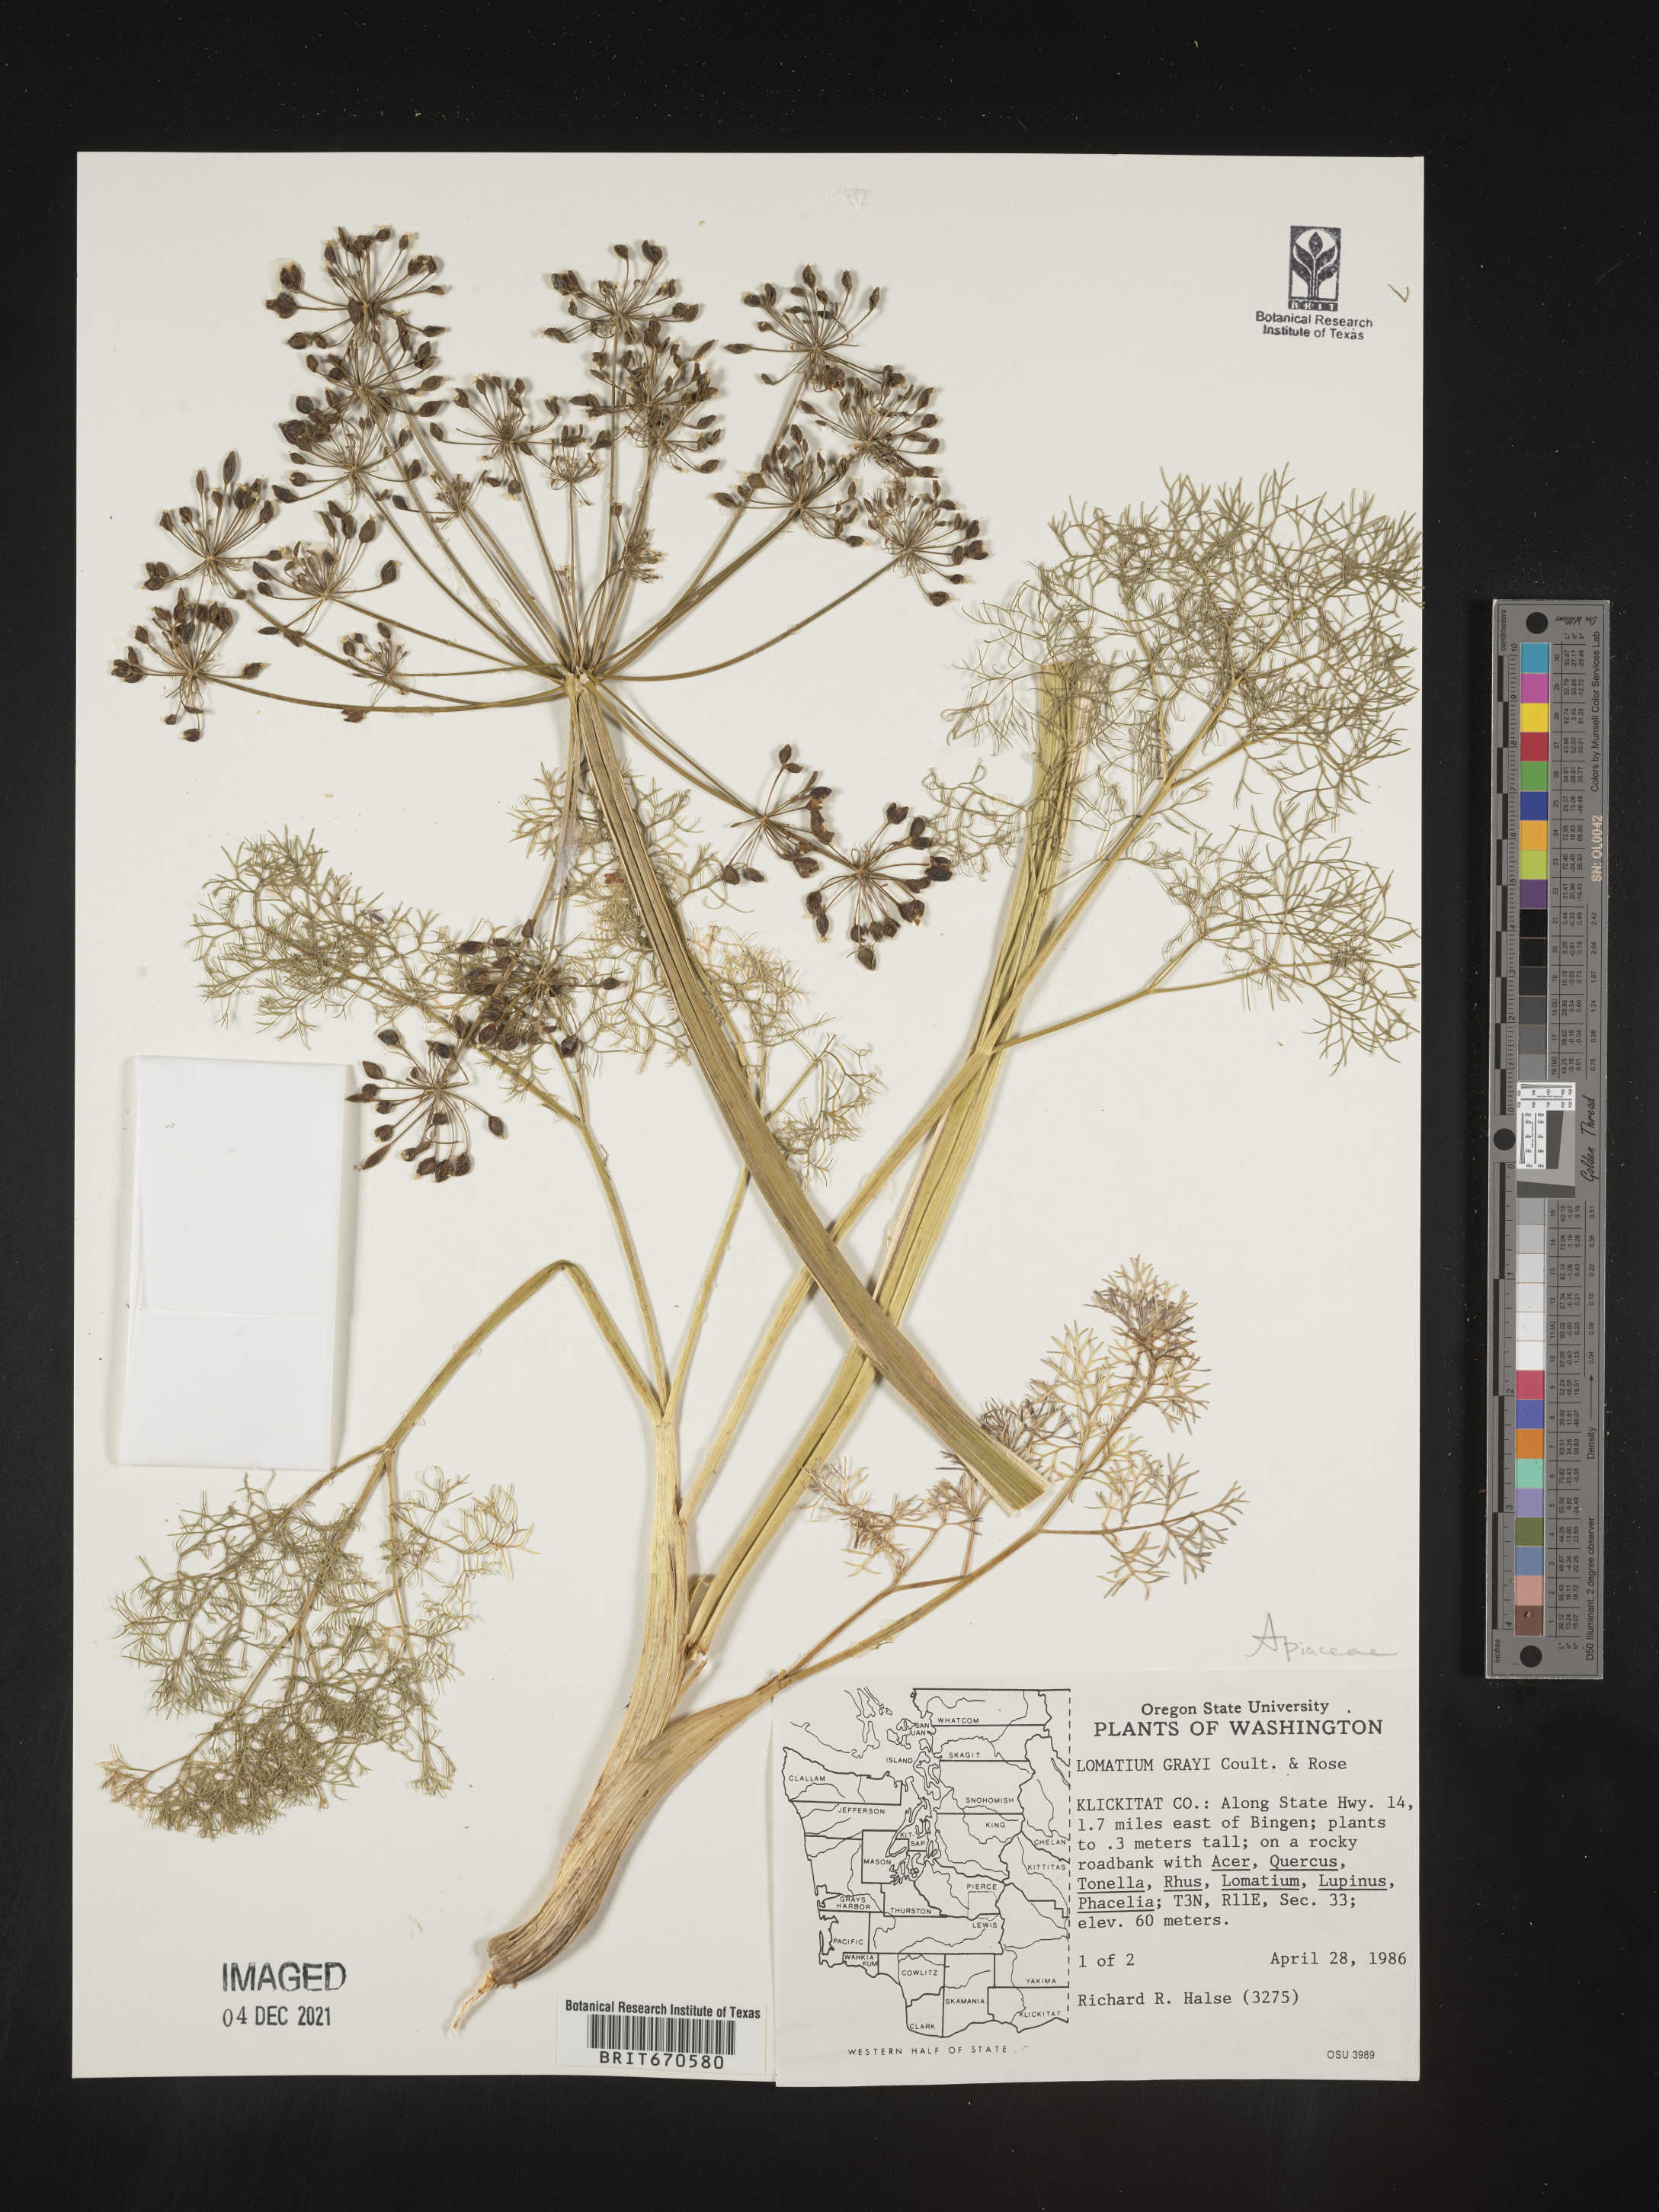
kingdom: Plantae
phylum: Tracheophyta
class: Magnoliopsida
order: Apiales
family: Apiaceae
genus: Lomatium
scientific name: Lomatium grayi
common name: Milfoil lomatium
